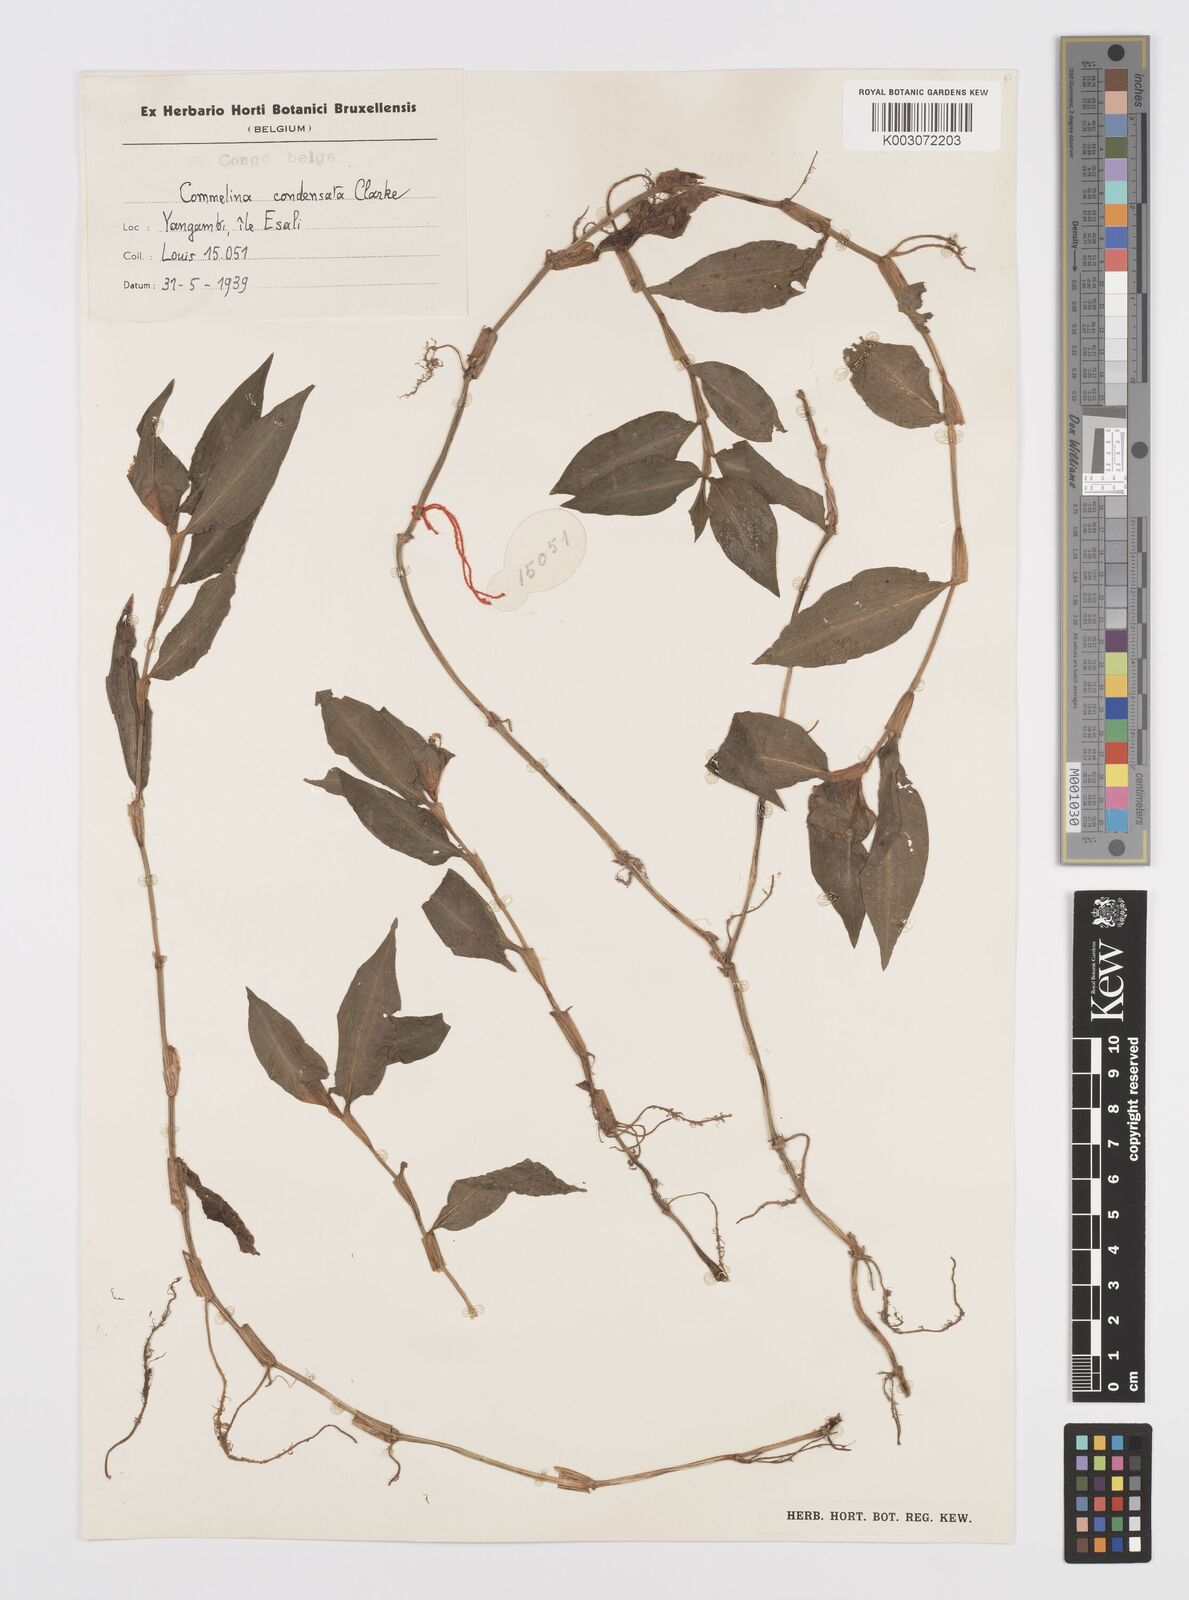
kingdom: Plantae
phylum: Tracheophyta
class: Liliopsida
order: Commelinales
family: Commelinaceae
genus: Commelina
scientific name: Commelina congesta
